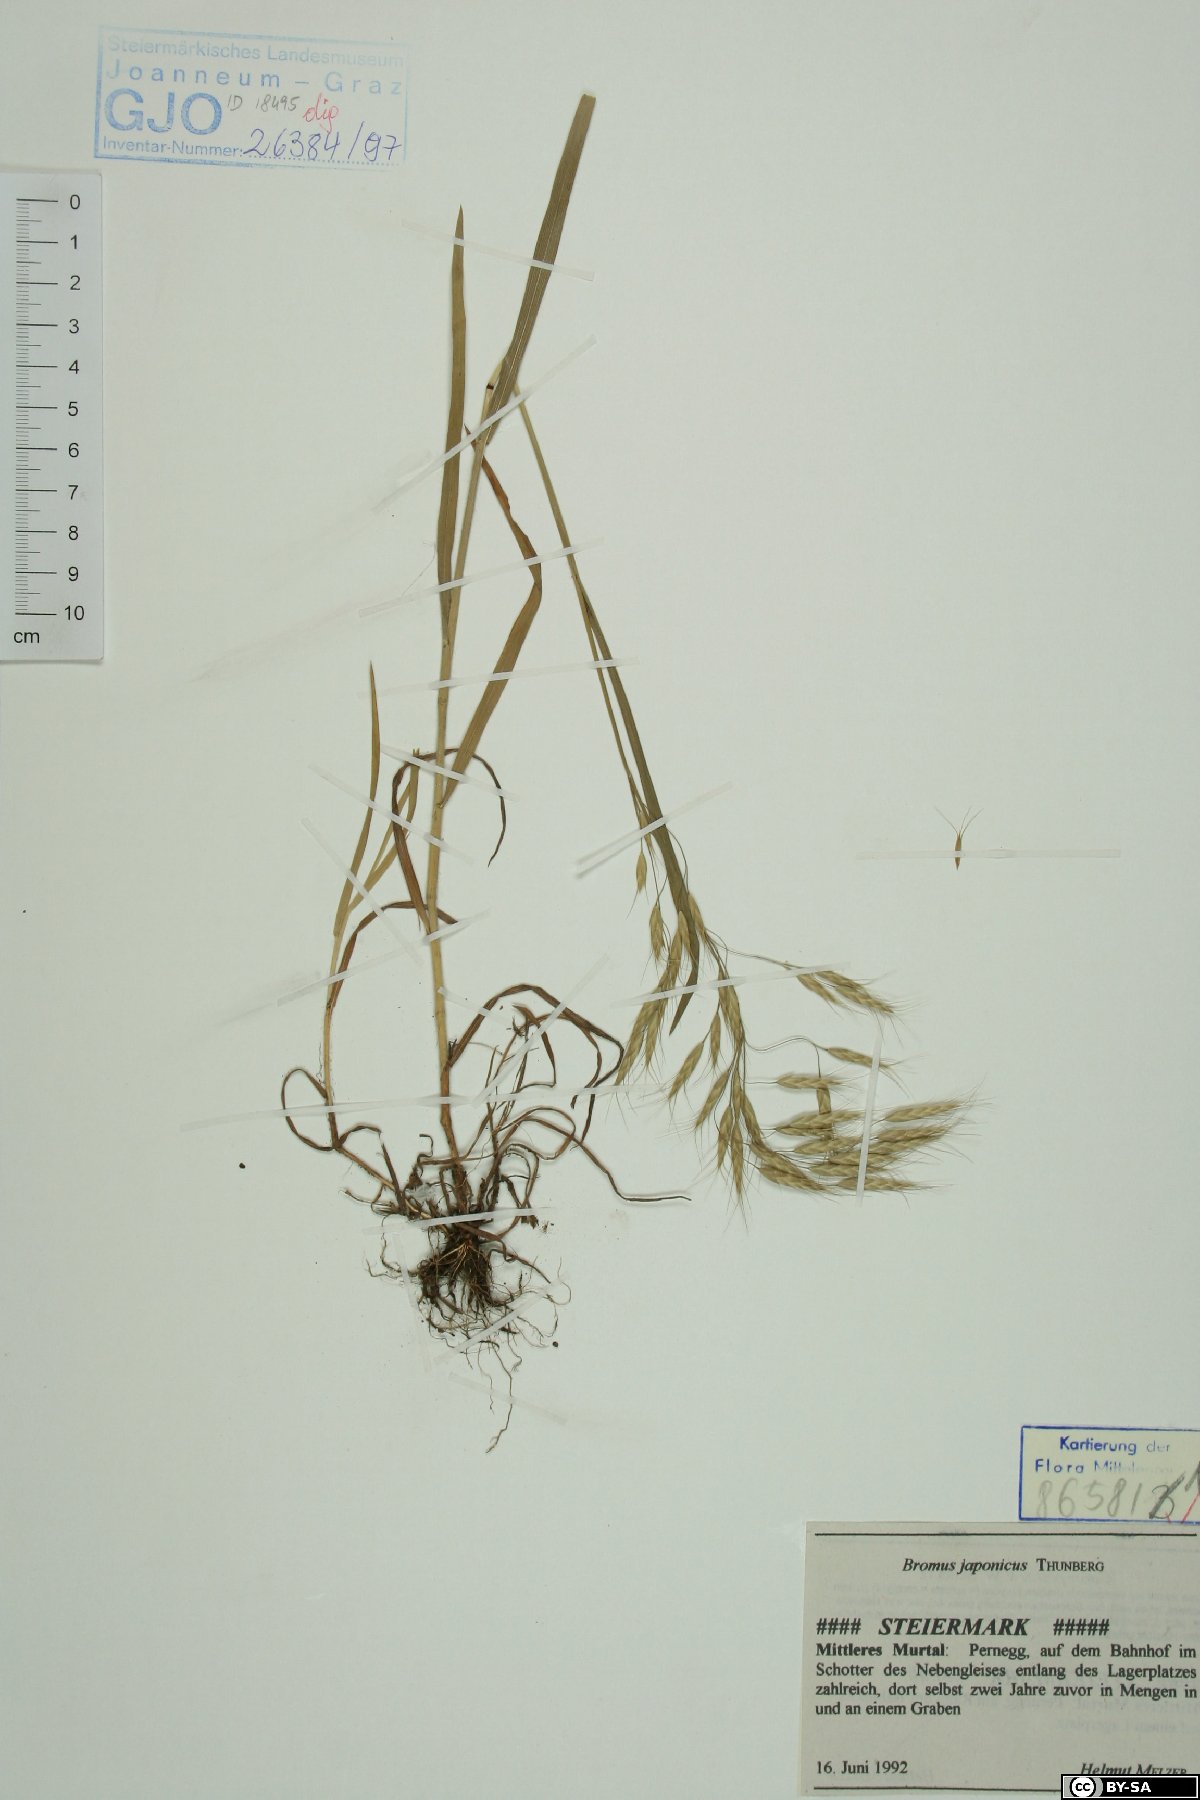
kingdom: Plantae
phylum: Tracheophyta
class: Liliopsida
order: Poales
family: Poaceae
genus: Bromus
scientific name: Bromus japonicus
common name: Japanese brome
